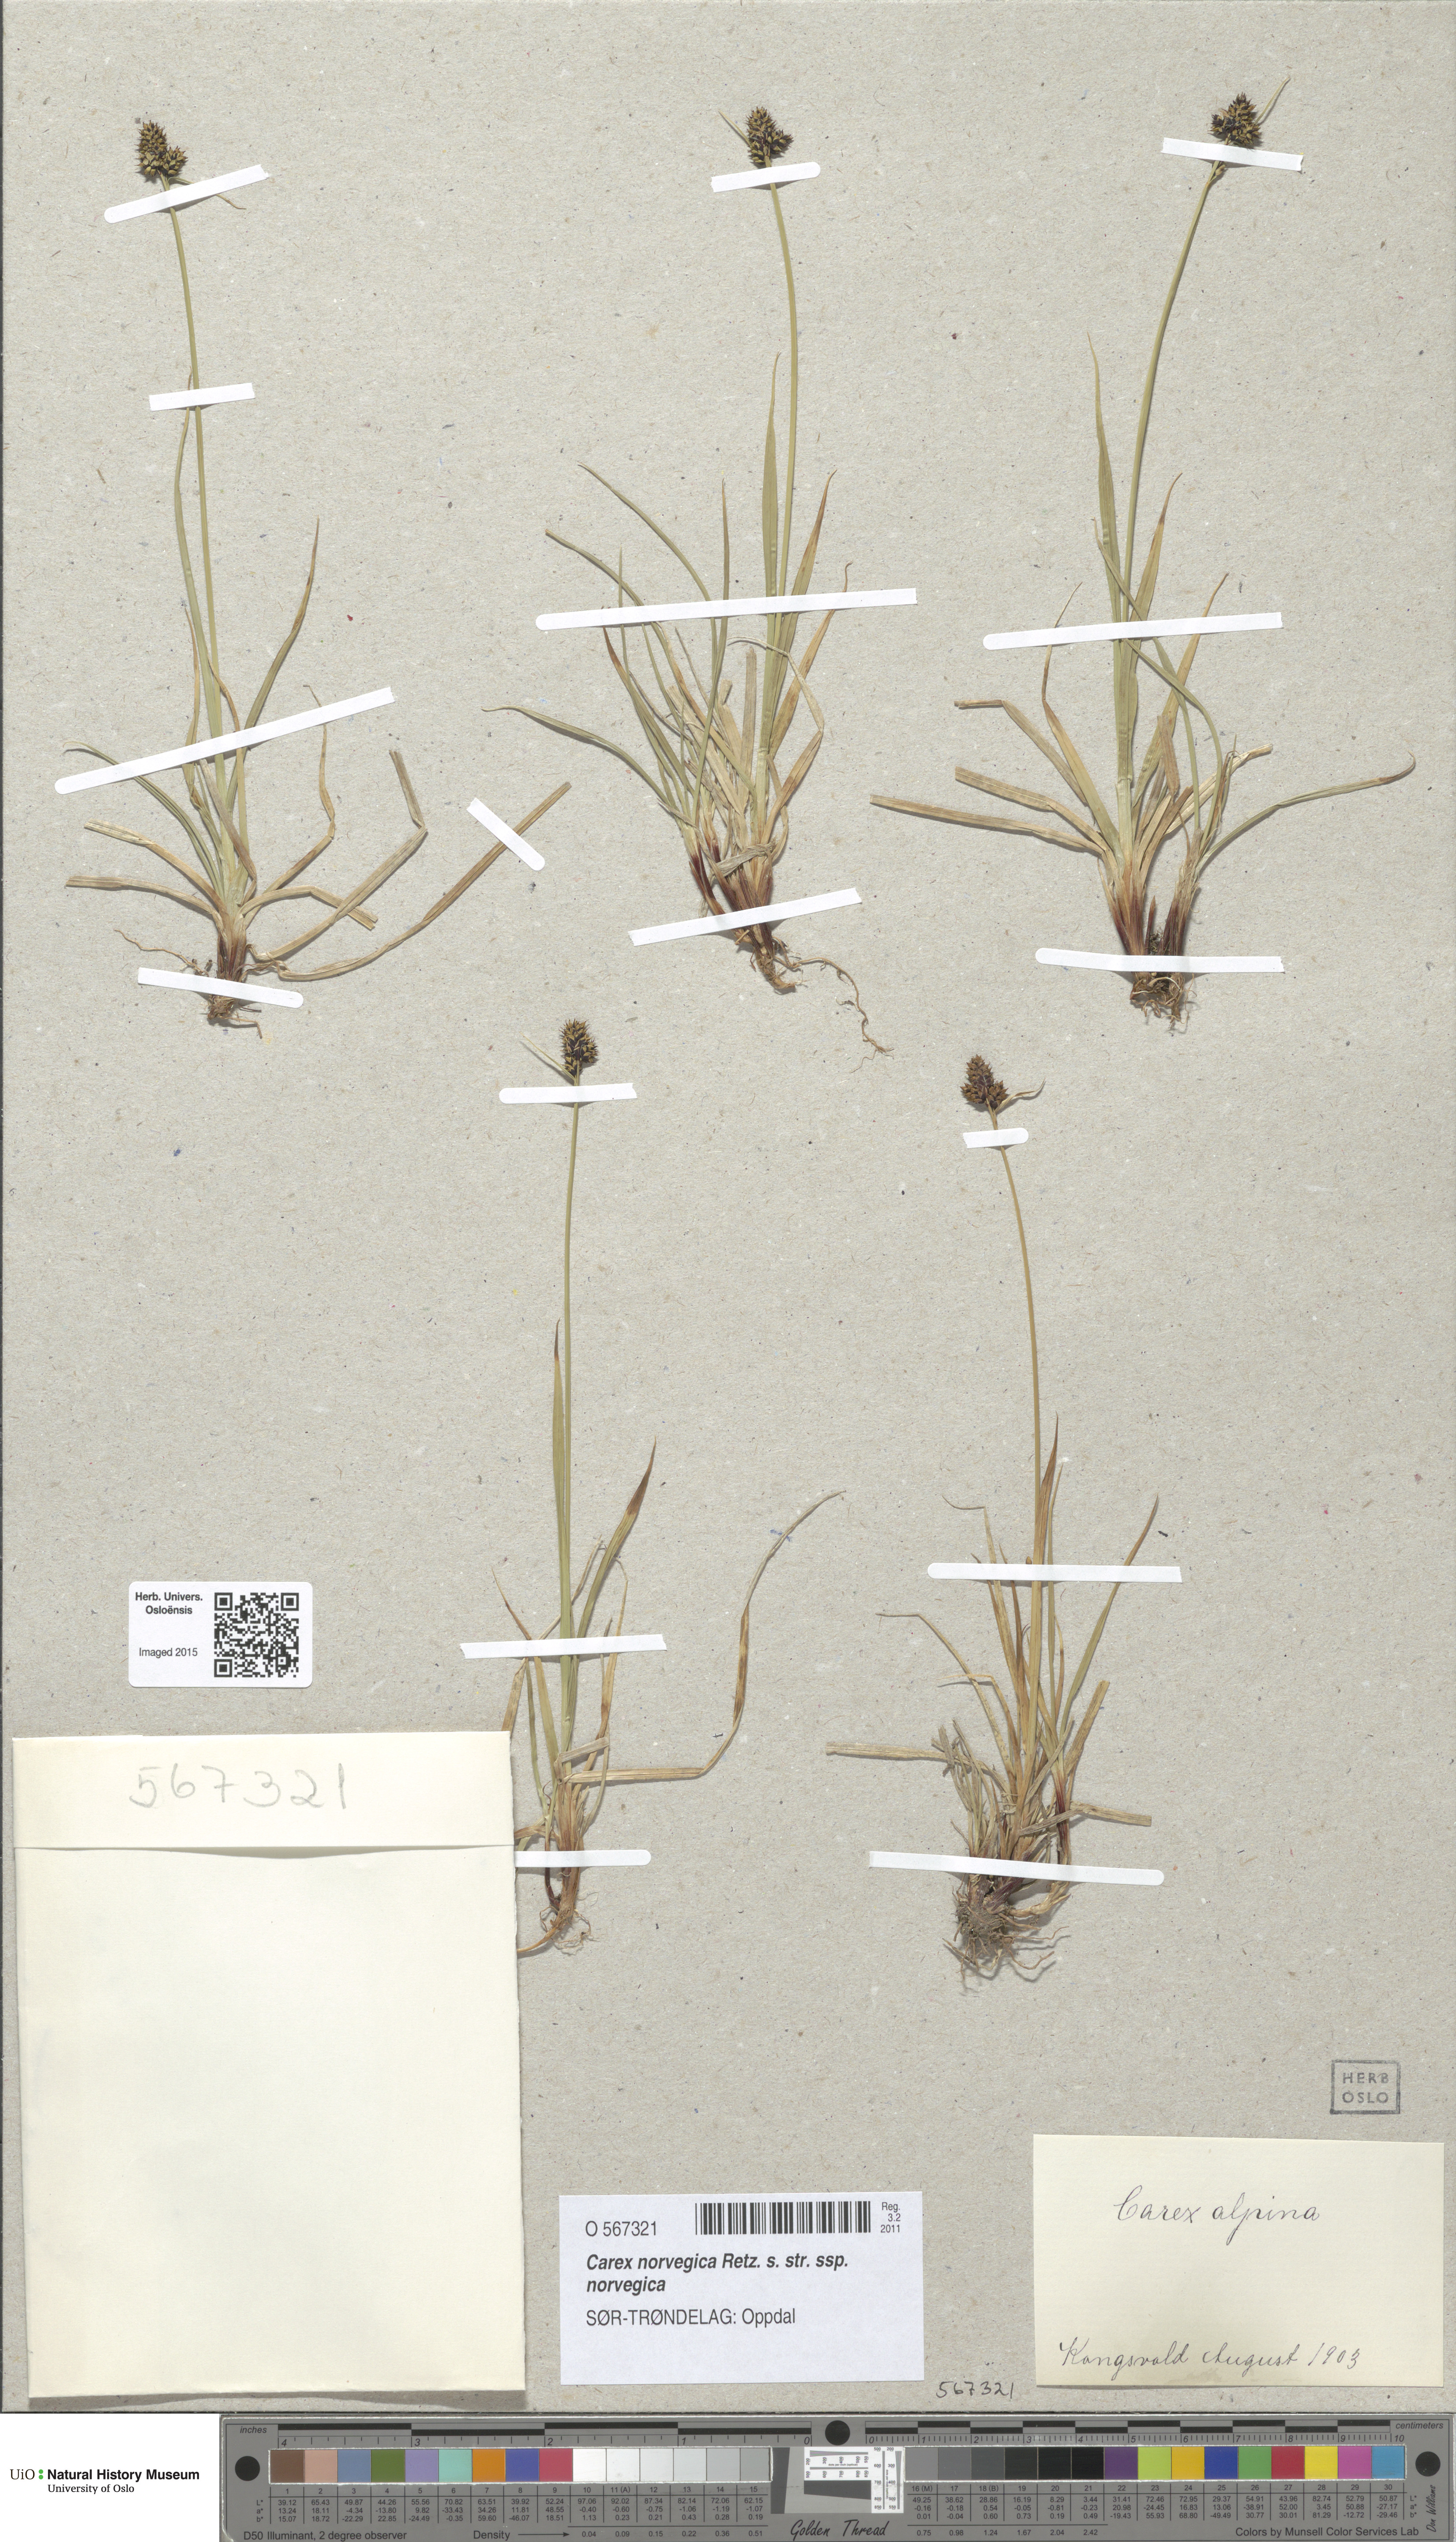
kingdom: Plantae
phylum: Tracheophyta
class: Liliopsida
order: Poales
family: Cyperaceae
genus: Carex
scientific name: Carex norvegica
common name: Close-headed alpine-sedge
